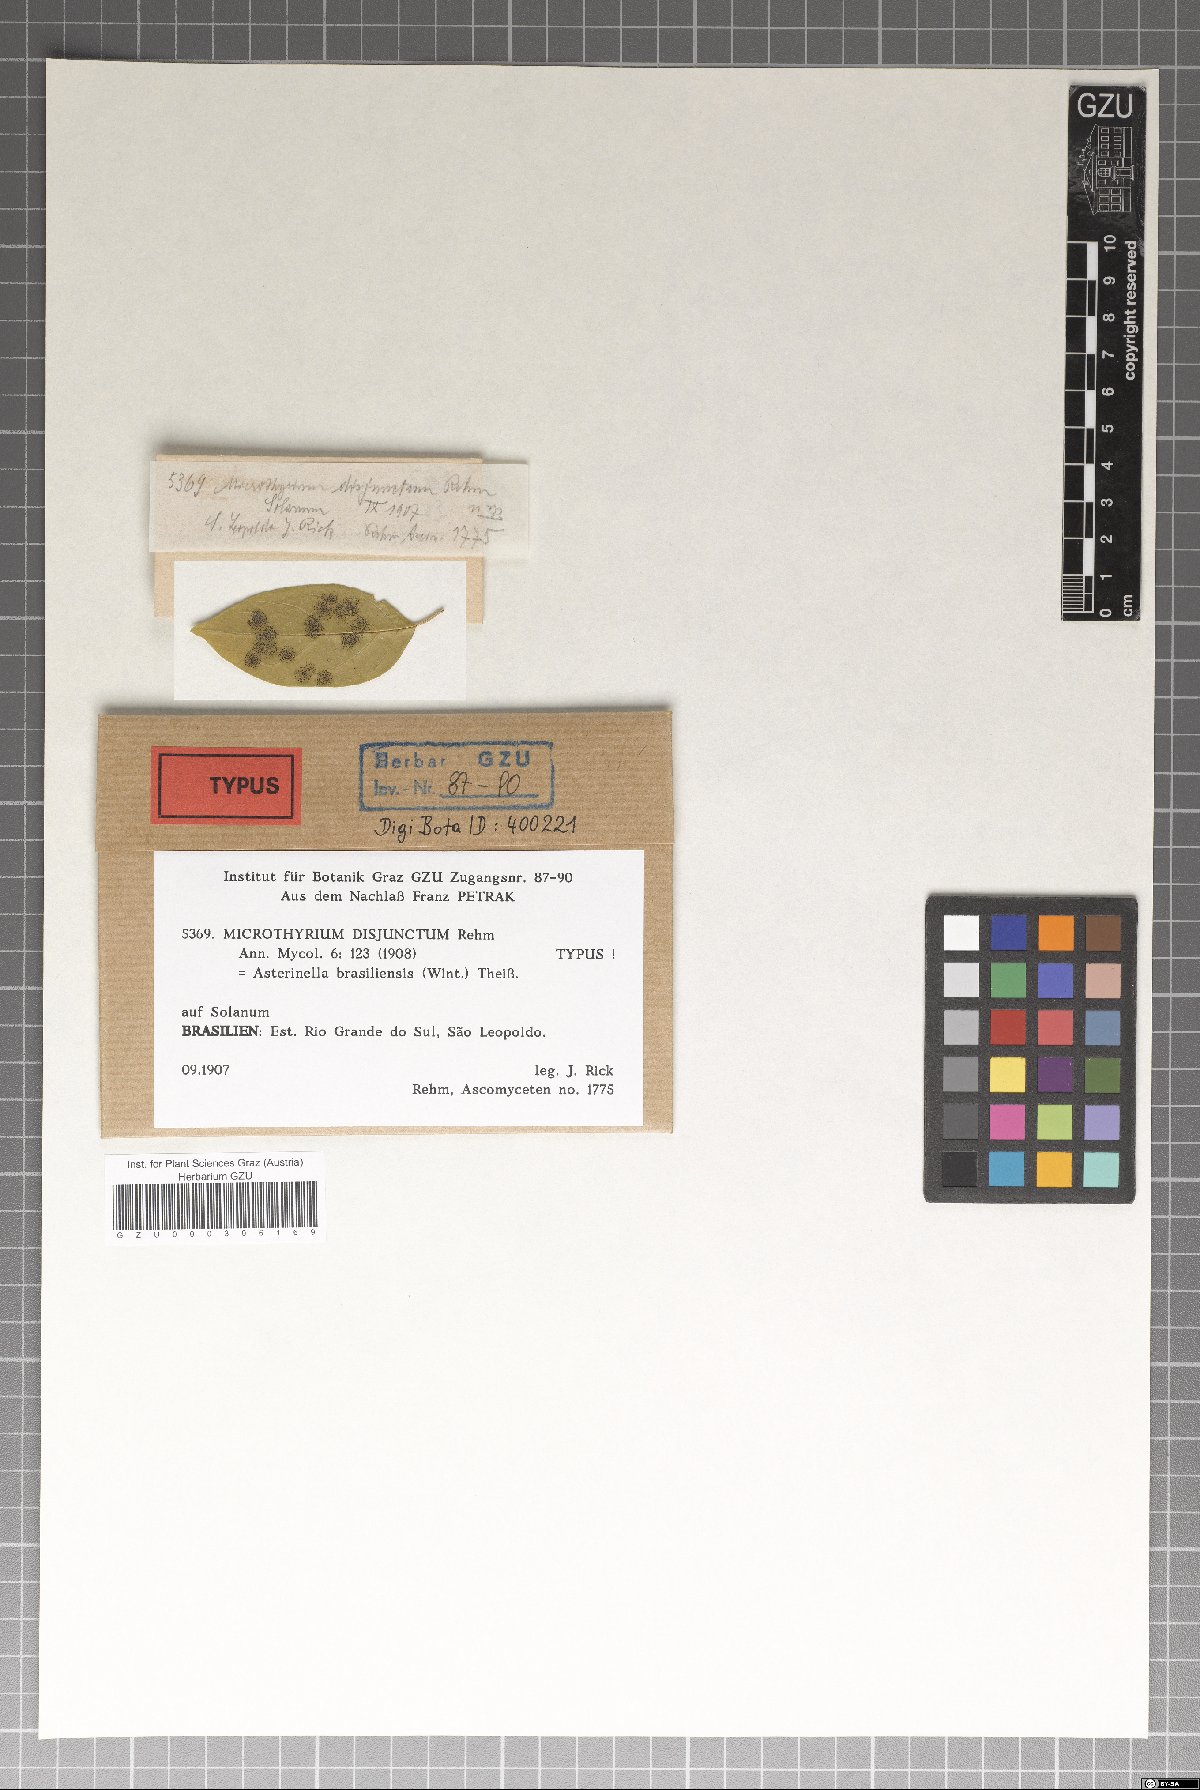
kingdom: Fungi
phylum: Ascomycota
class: Dothideomycetes
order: Microthyriales
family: Microthyriaceae
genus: Microthyrium
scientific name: Microthyrium disjunctum
